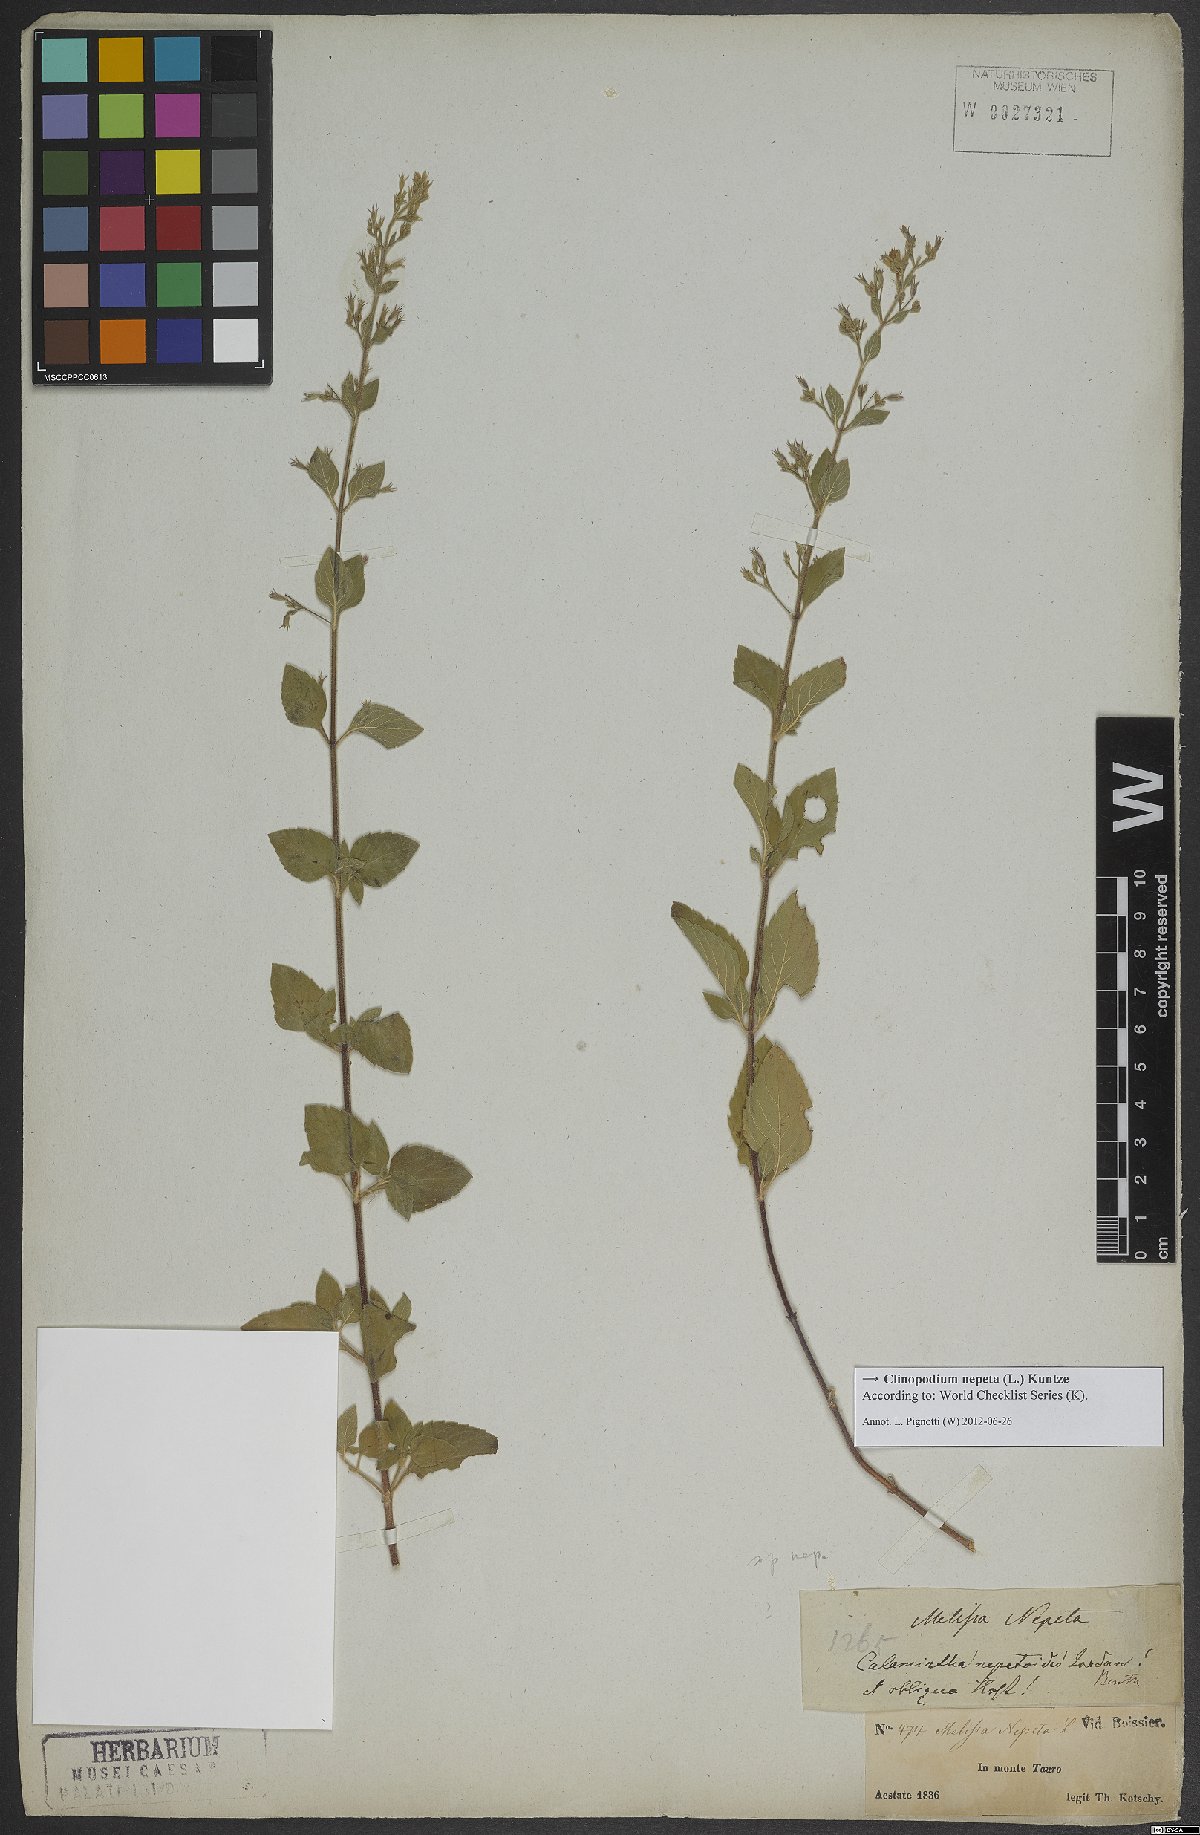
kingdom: Plantae
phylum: Tracheophyta
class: Magnoliopsida
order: Lamiales
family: Lamiaceae
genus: Clinopodium
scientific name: Clinopodium nepeta
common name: Lesser calamint
